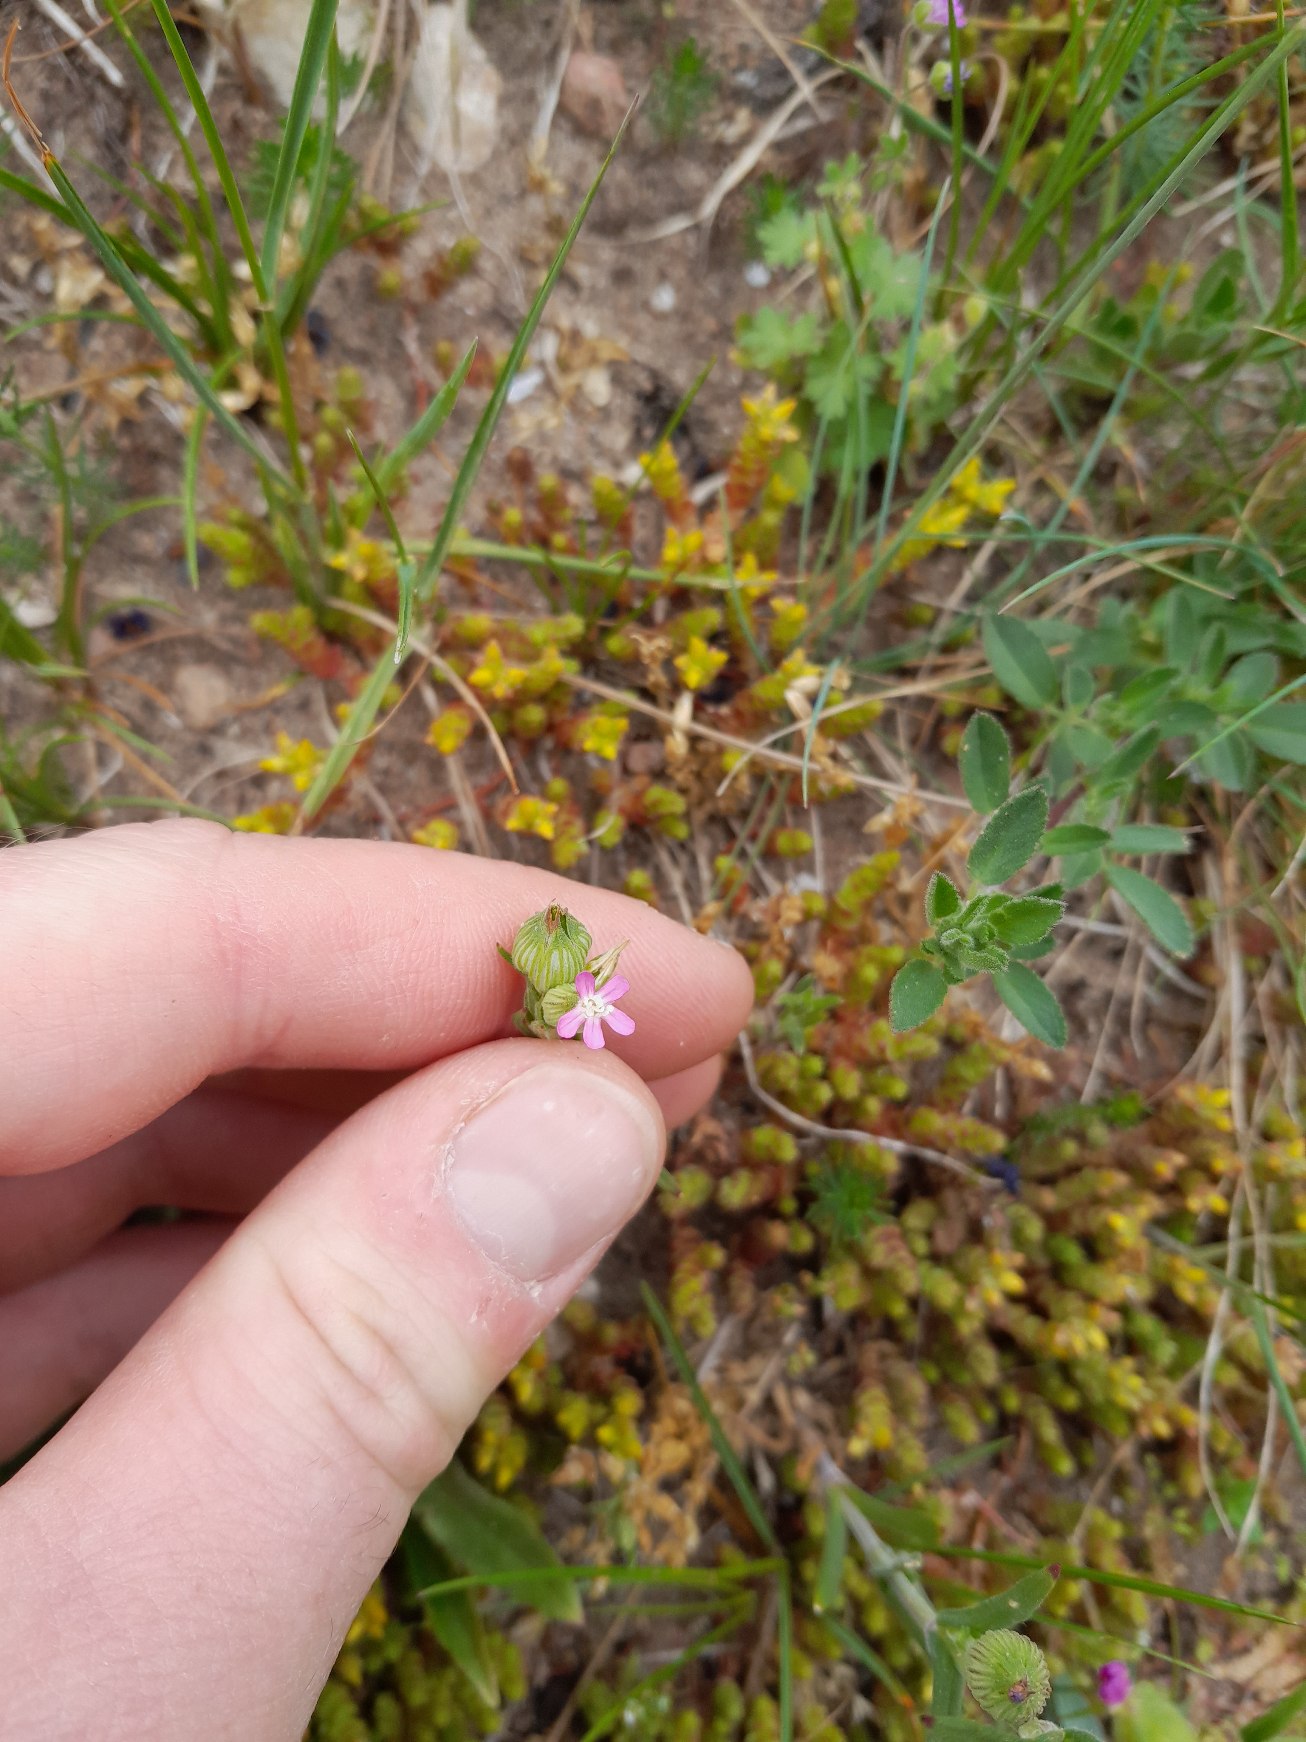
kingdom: Plantae
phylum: Tracheophyta
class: Magnoliopsida
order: Caryophyllales
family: Caryophyllaceae
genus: Silene
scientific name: Silene conica
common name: Kegle-limurt
